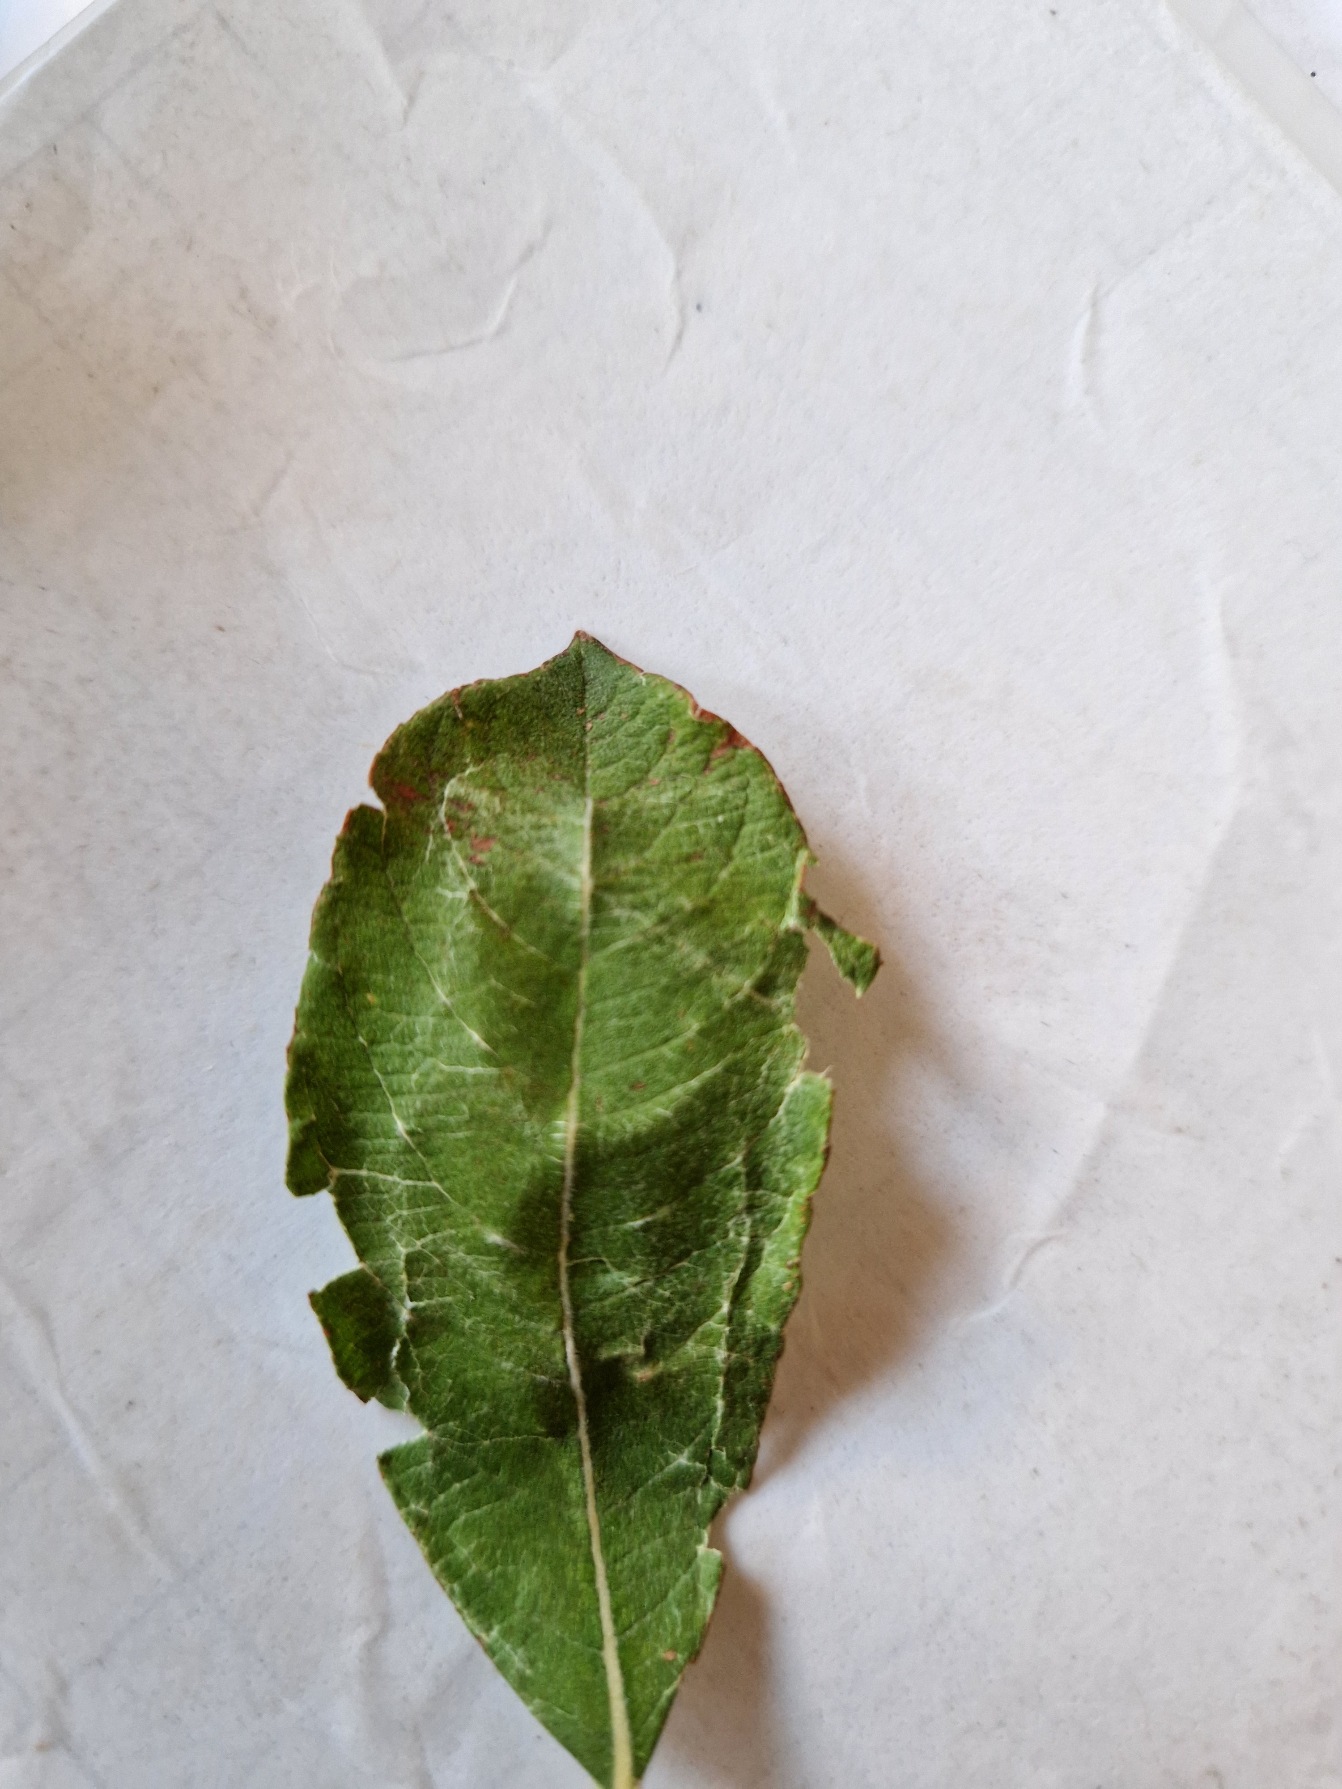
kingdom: Plantae
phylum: Tracheophyta
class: Magnoliopsida
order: Malpighiales
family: Salicaceae
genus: Salix
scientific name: Salix cinerea
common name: Grå-pil
